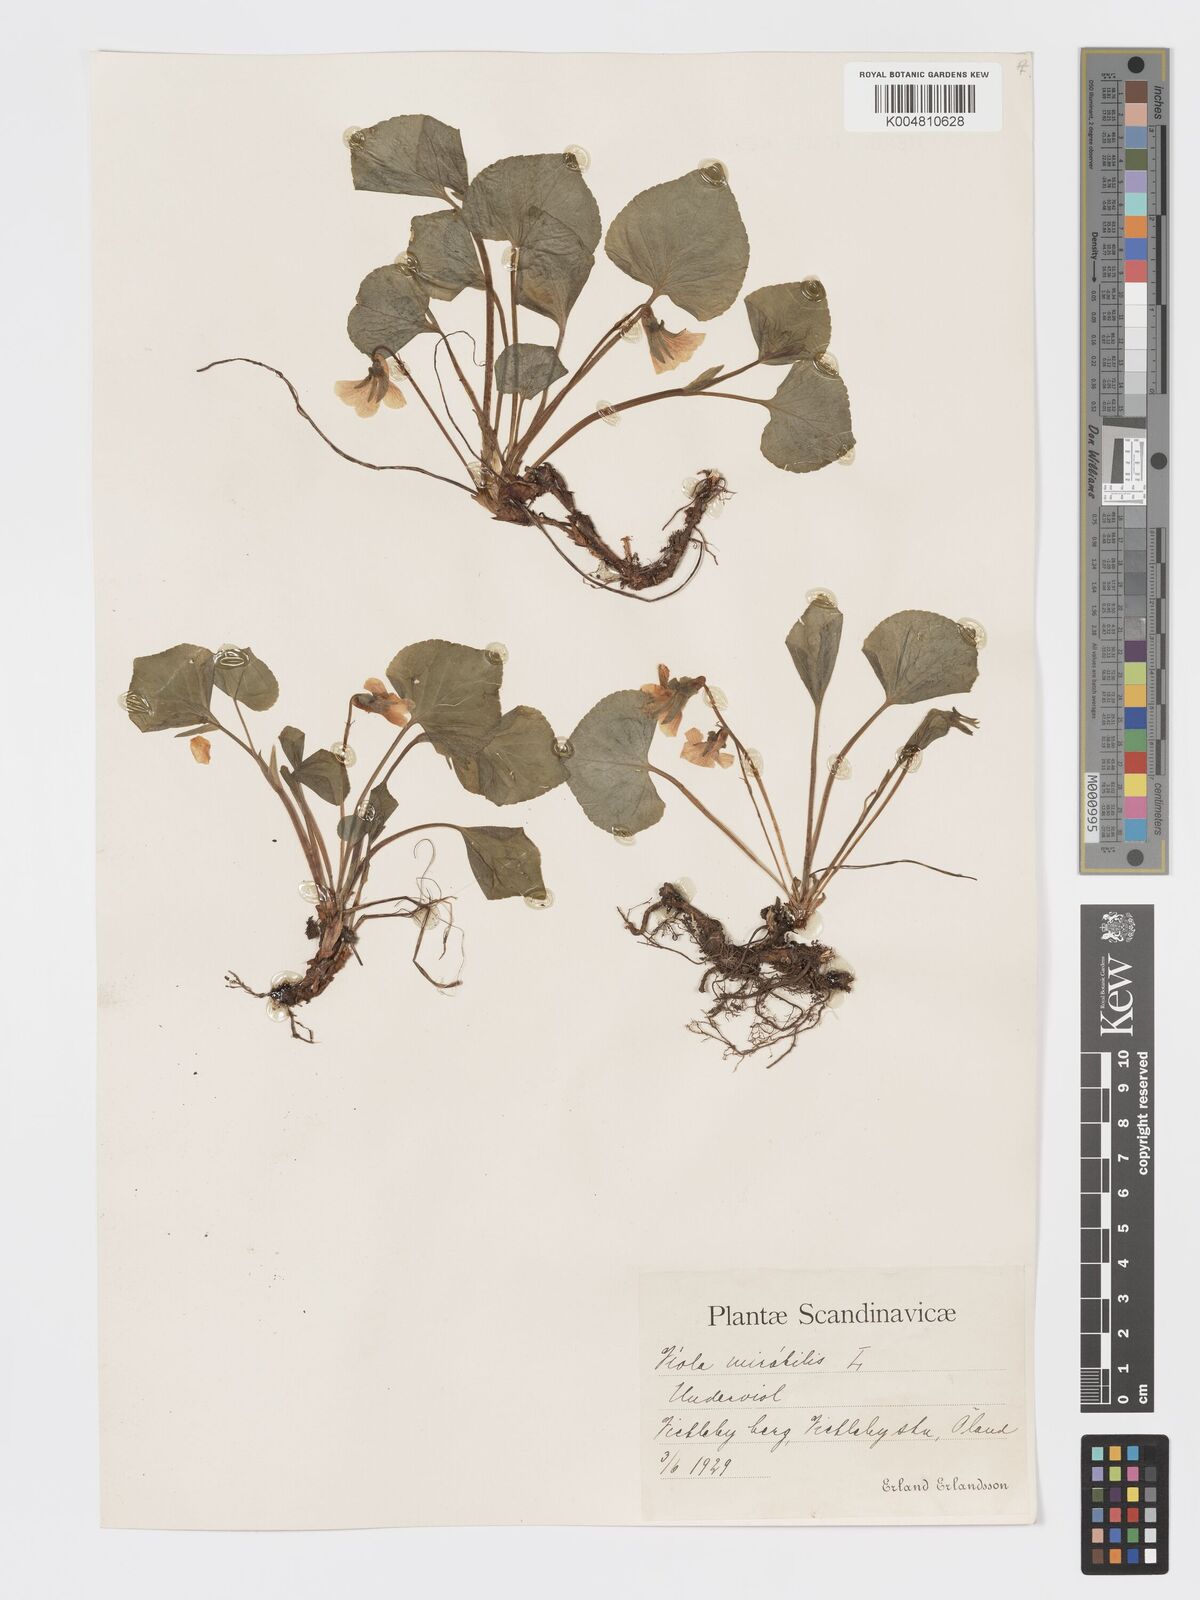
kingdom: Plantae
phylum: Tracheophyta
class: Magnoliopsida
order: Malpighiales
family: Violaceae
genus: Viola
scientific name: Viola mirabilis
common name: Wonder violet
